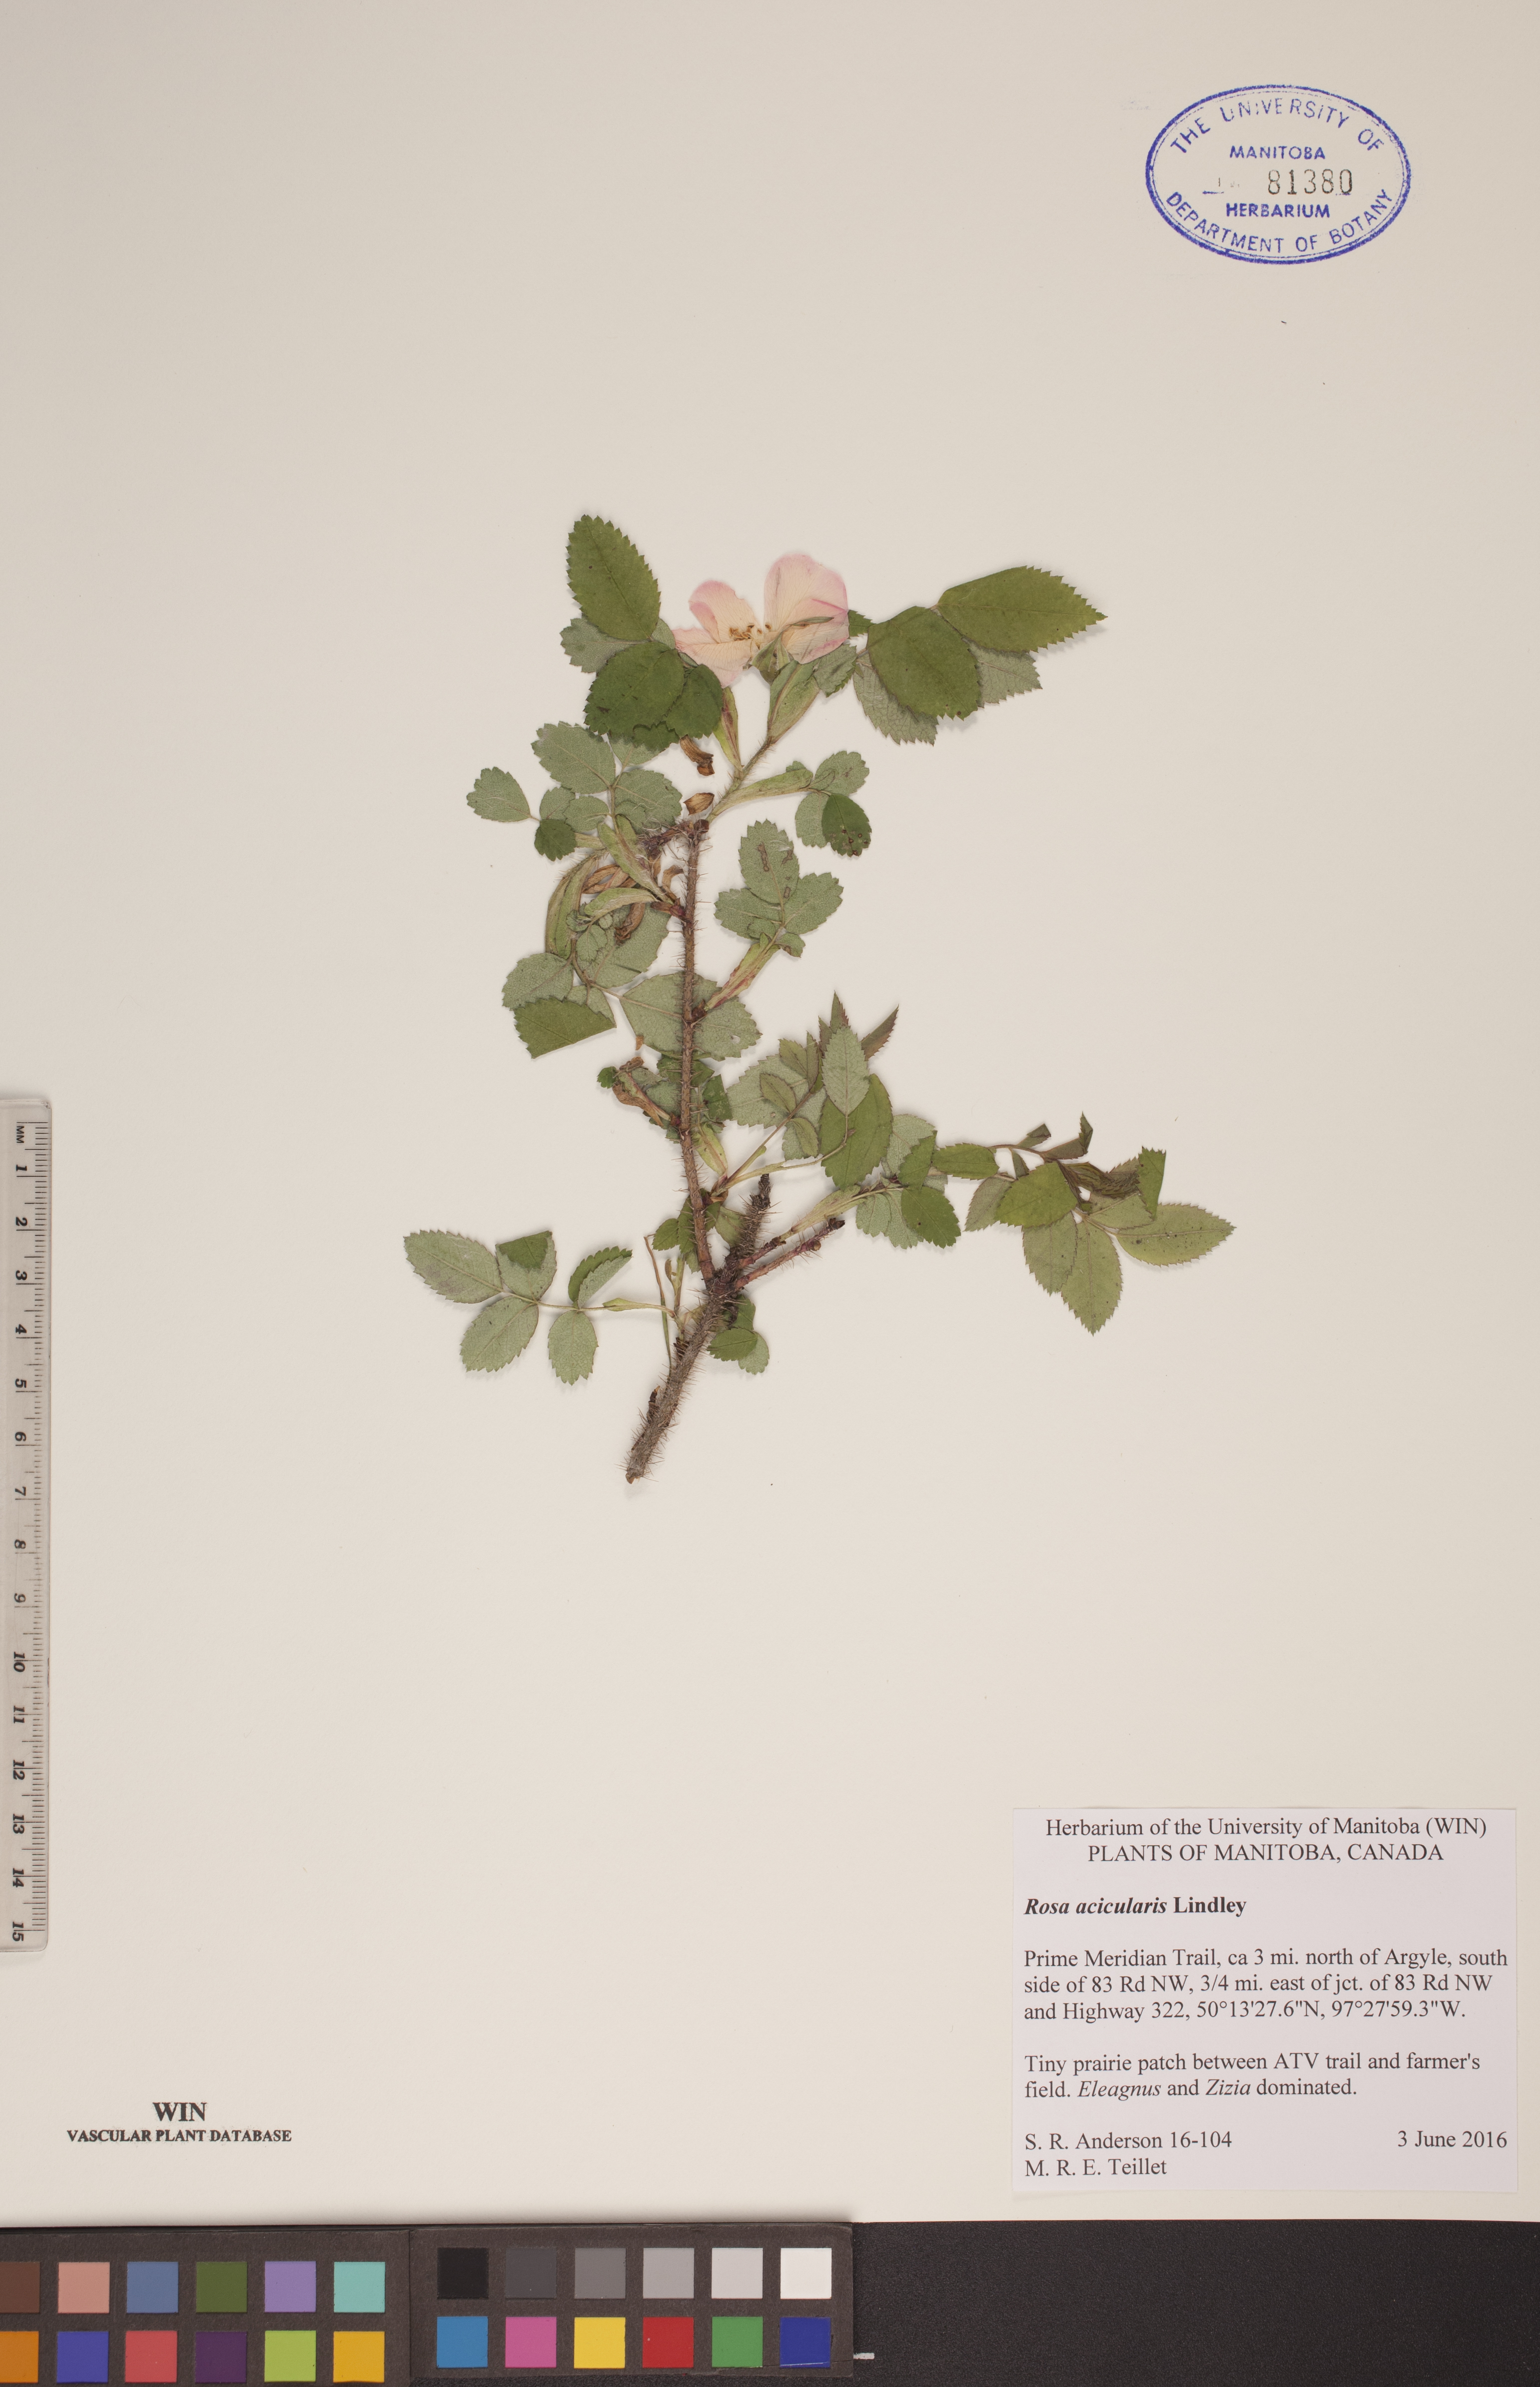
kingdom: Plantae
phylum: Tracheophyta
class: Magnoliopsida
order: Rosales
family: Rosaceae
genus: Rosa
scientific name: Rosa acicularis
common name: Prickly rose
